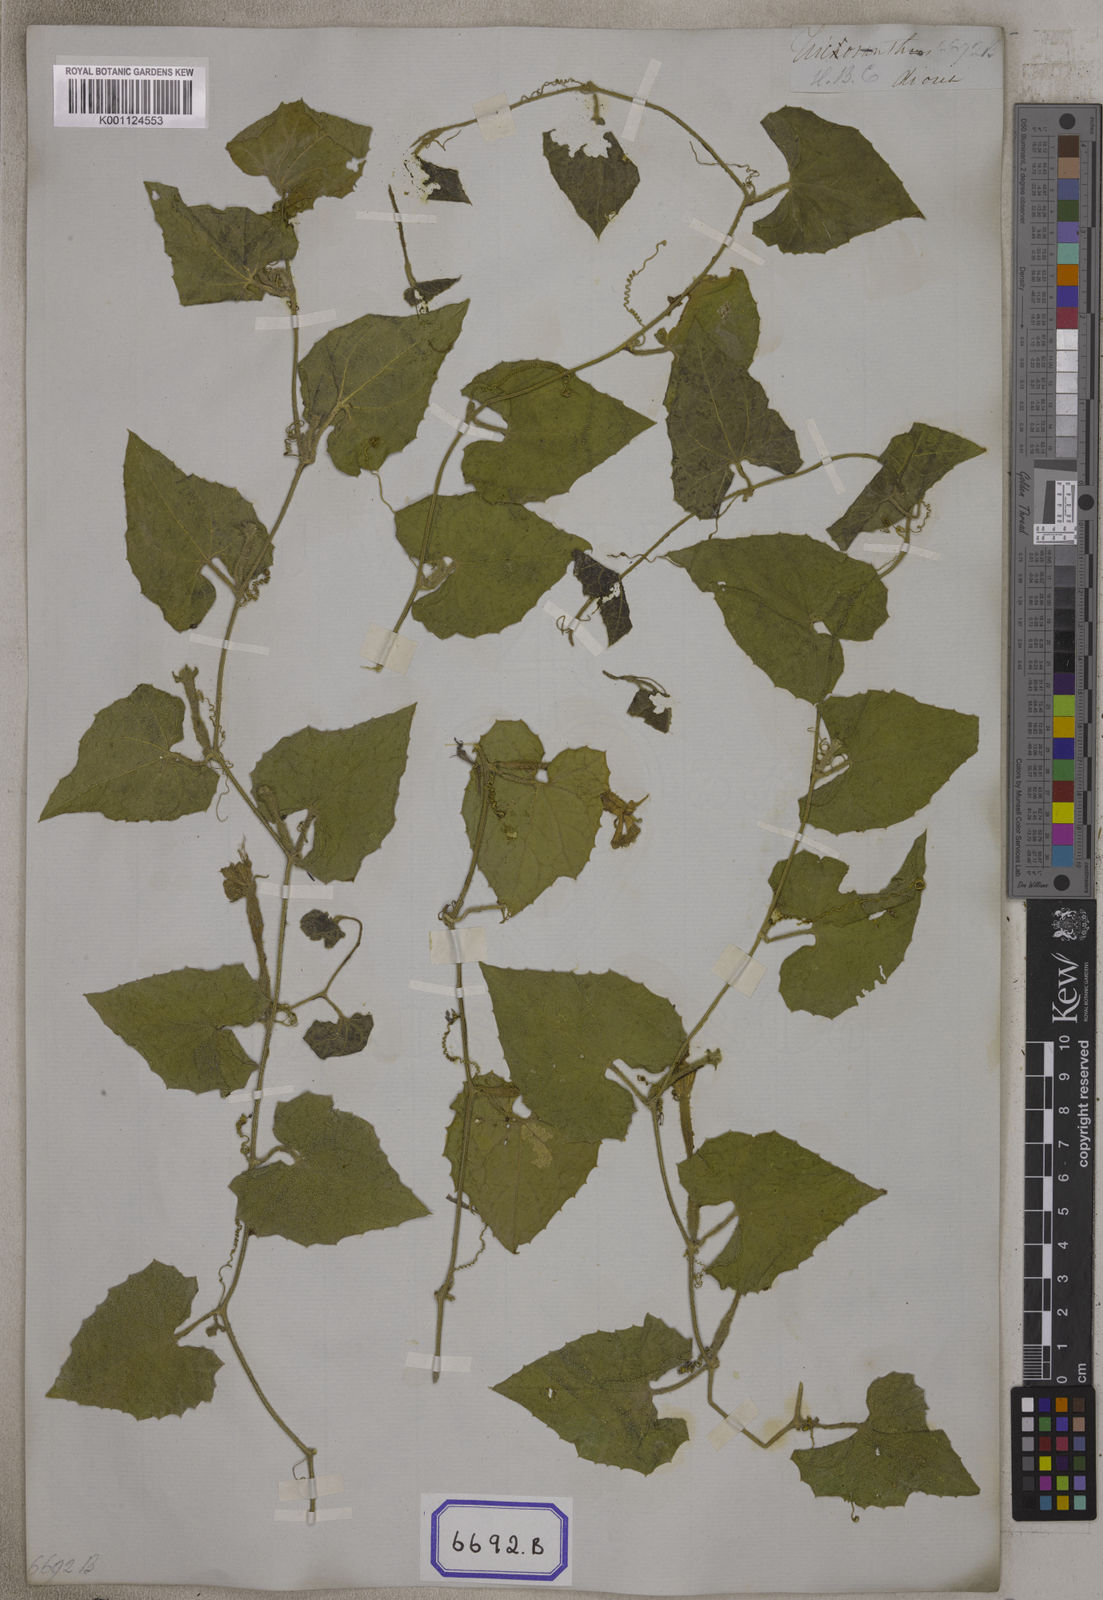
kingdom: Plantae
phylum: Tracheophyta
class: Magnoliopsida
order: Cucurbitales
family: Cucurbitaceae
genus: Trichosanthes
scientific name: Trichosanthes
